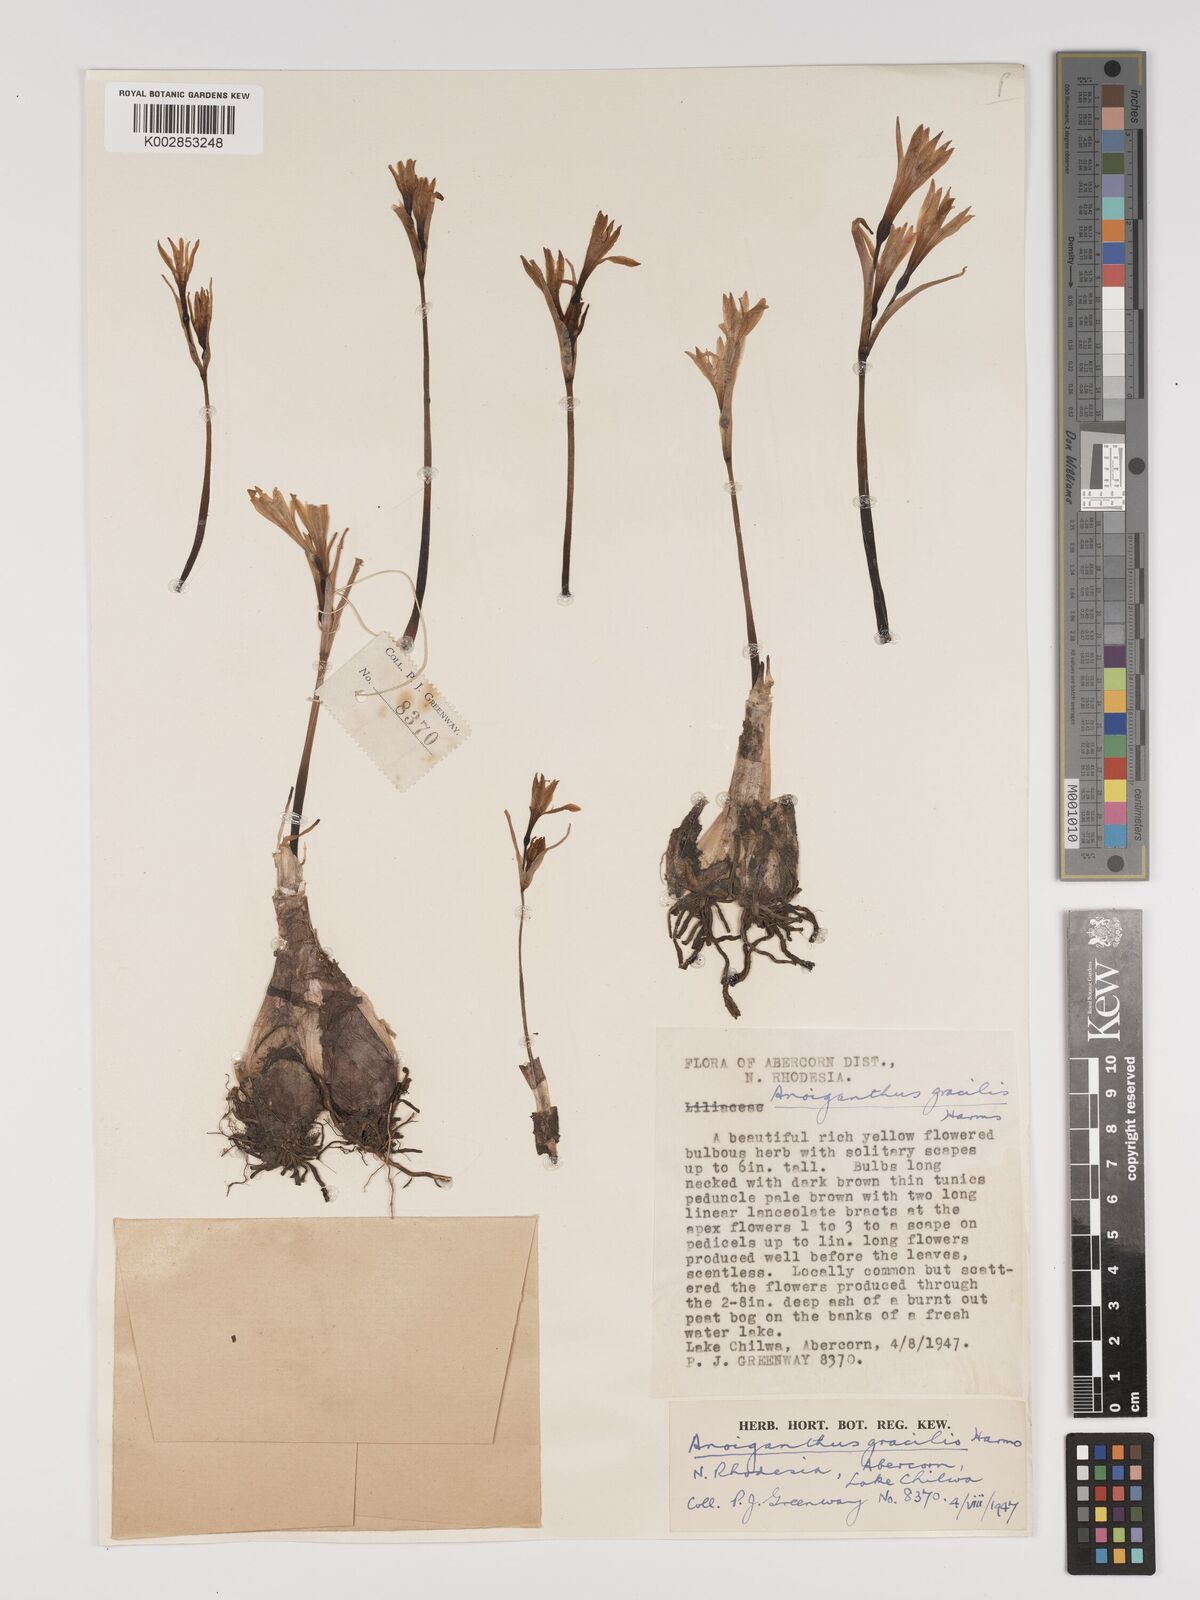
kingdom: Plantae
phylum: Tracheophyta
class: Liliopsida
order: Asparagales
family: Amaryllidaceae
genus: Cyrtanthus
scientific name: Cyrtanthus breviflorus
